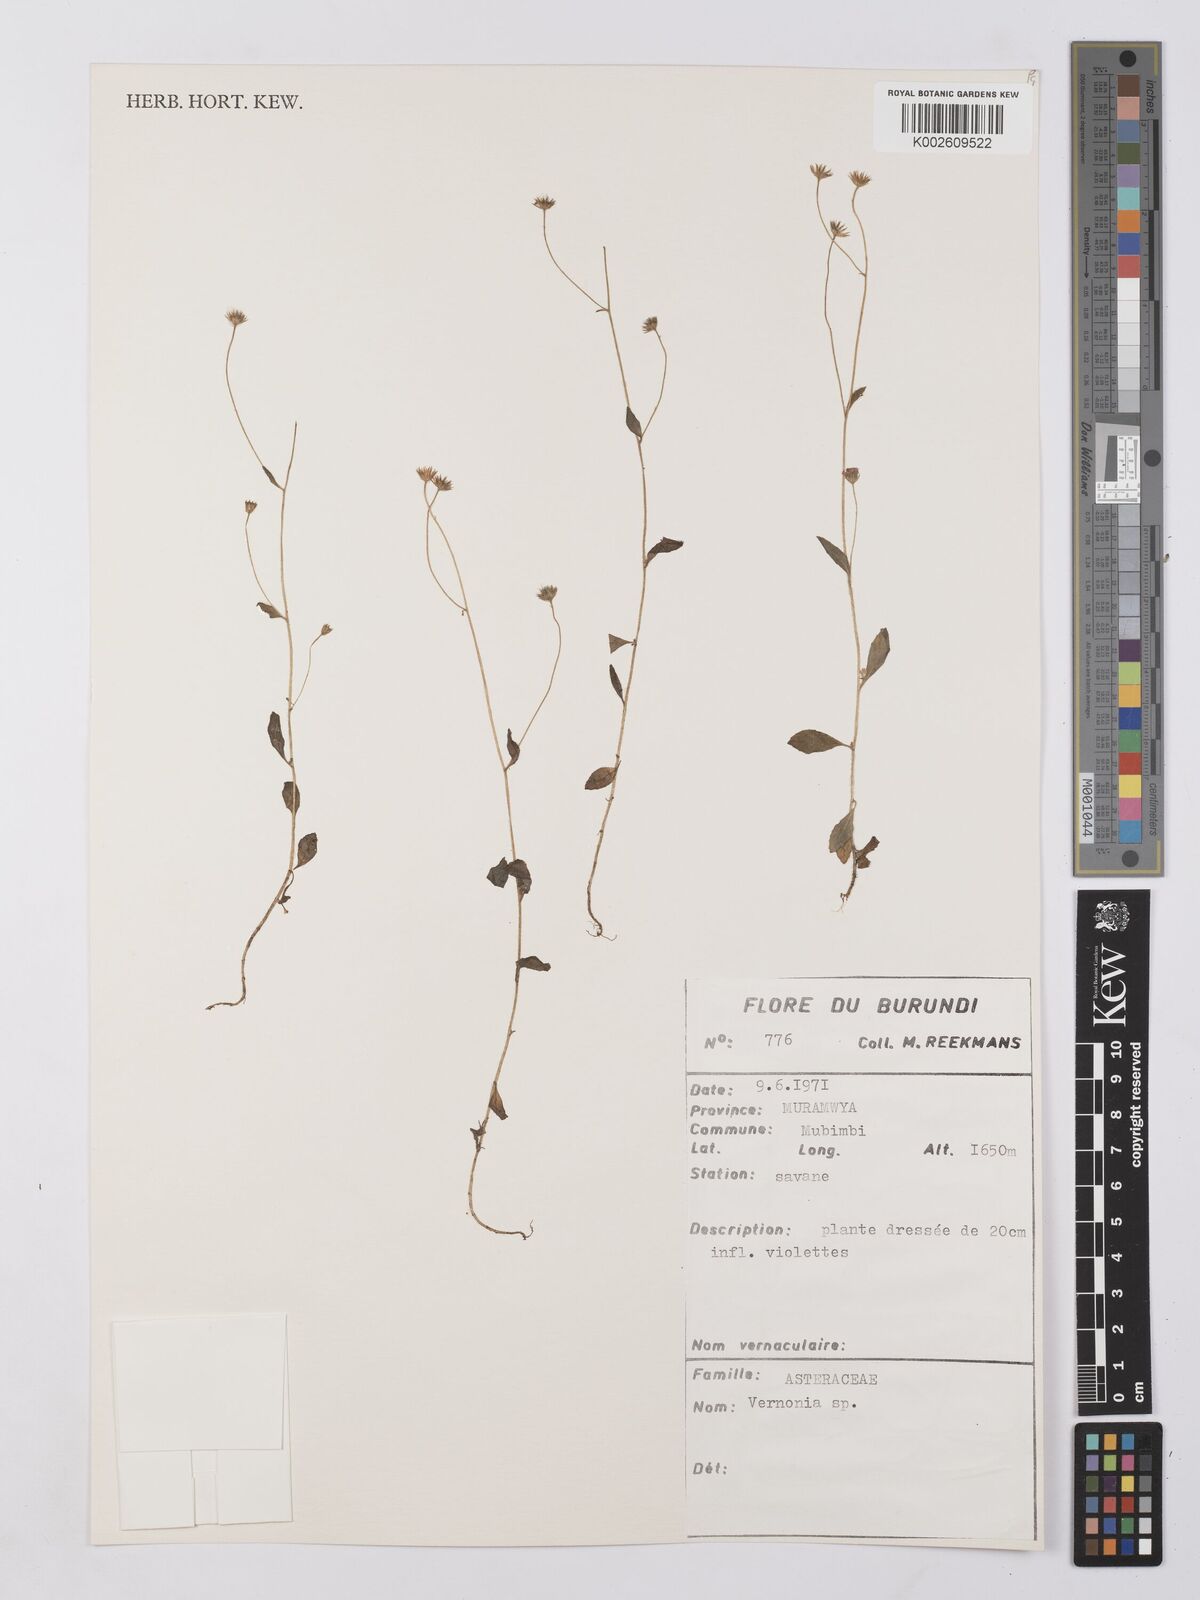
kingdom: Plantae
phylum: Tracheophyta
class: Magnoliopsida
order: Asterales
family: Asteraceae
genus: Vernonia
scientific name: Vernonia
